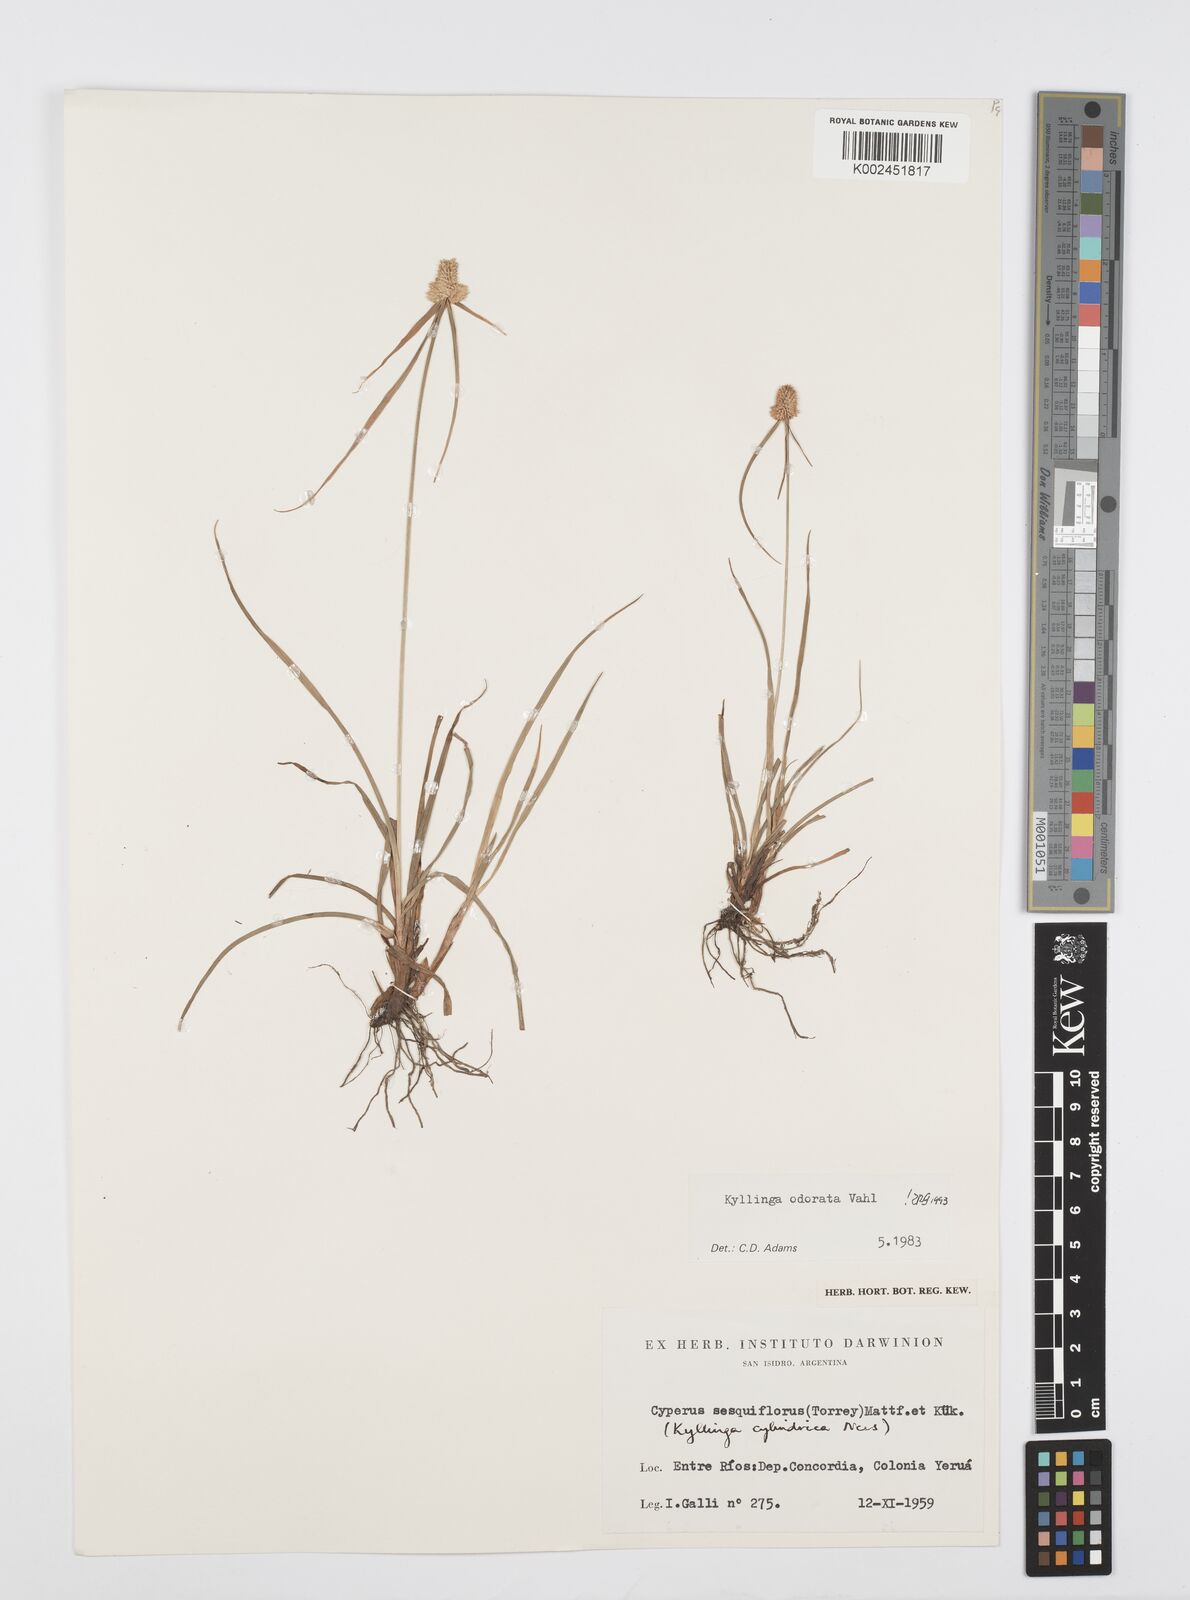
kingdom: Plantae
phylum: Tracheophyta
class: Liliopsida
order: Poales
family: Cyperaceae
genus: Cyperus
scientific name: Cyperus
